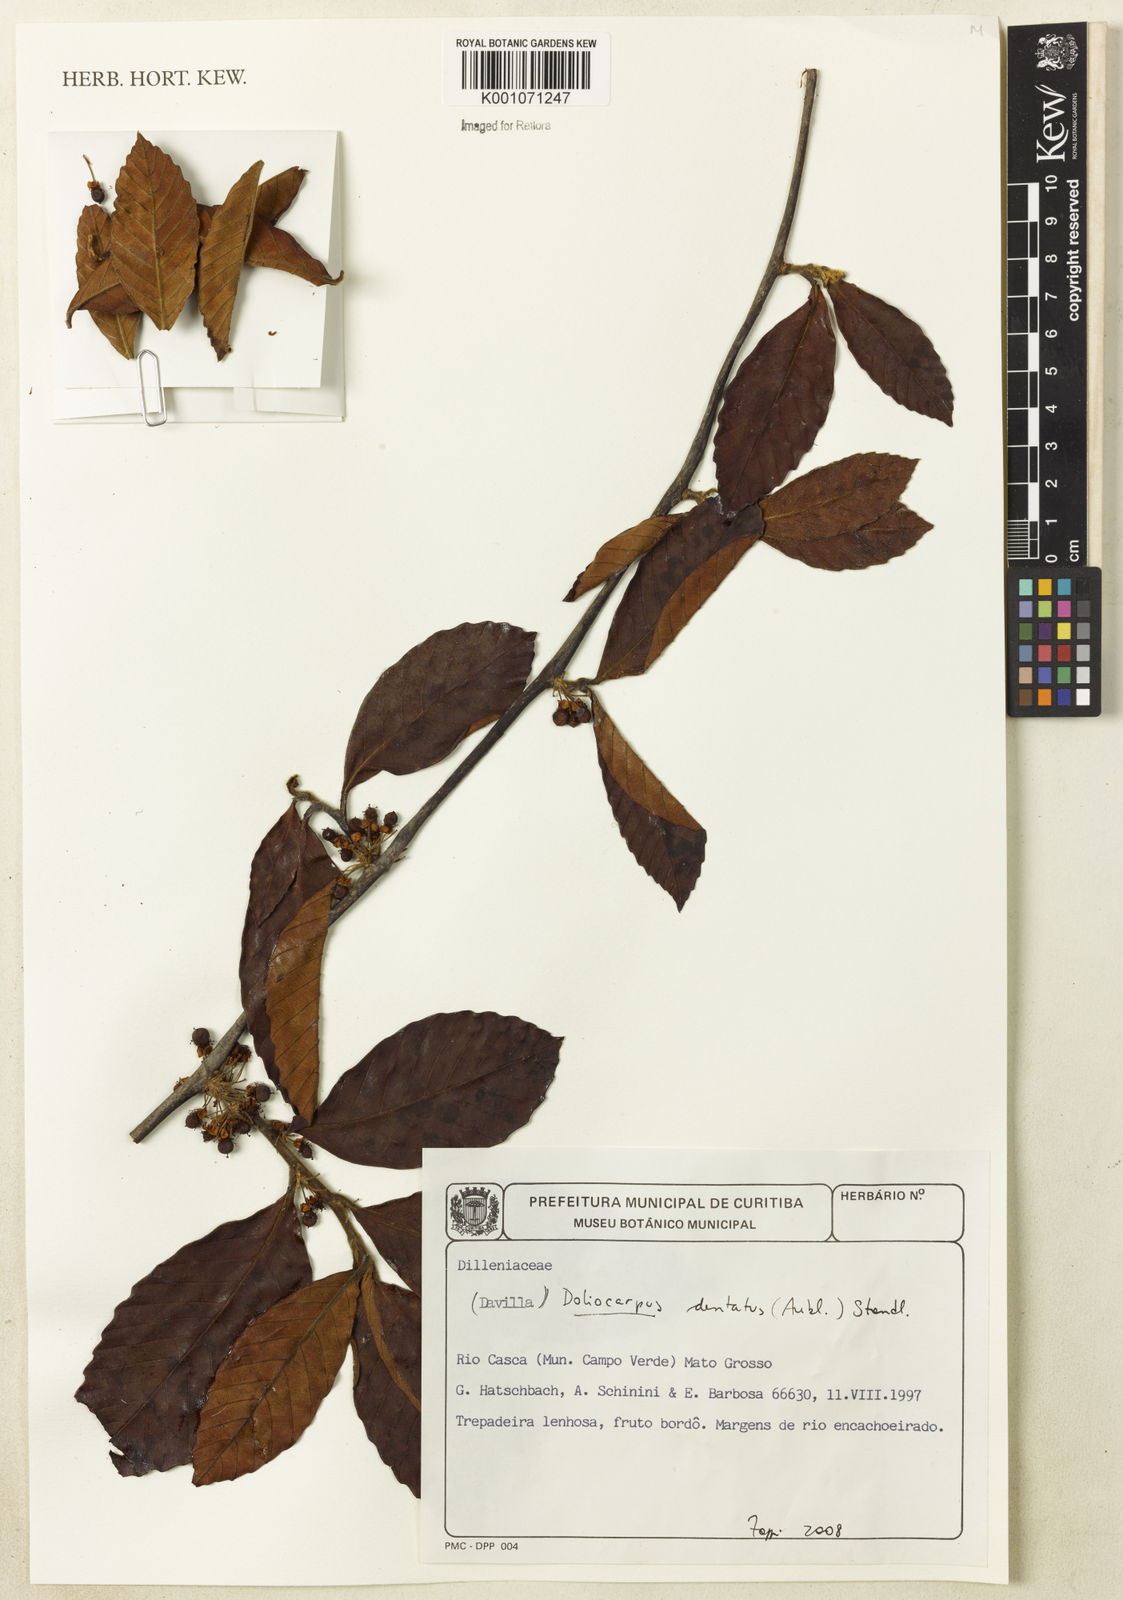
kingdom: Plantae
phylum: Tracheophyta
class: Magnoliopsida
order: Dilleniales
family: Dilleniaceae
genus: Doliocarpus
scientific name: Doliocarpus dentatus
